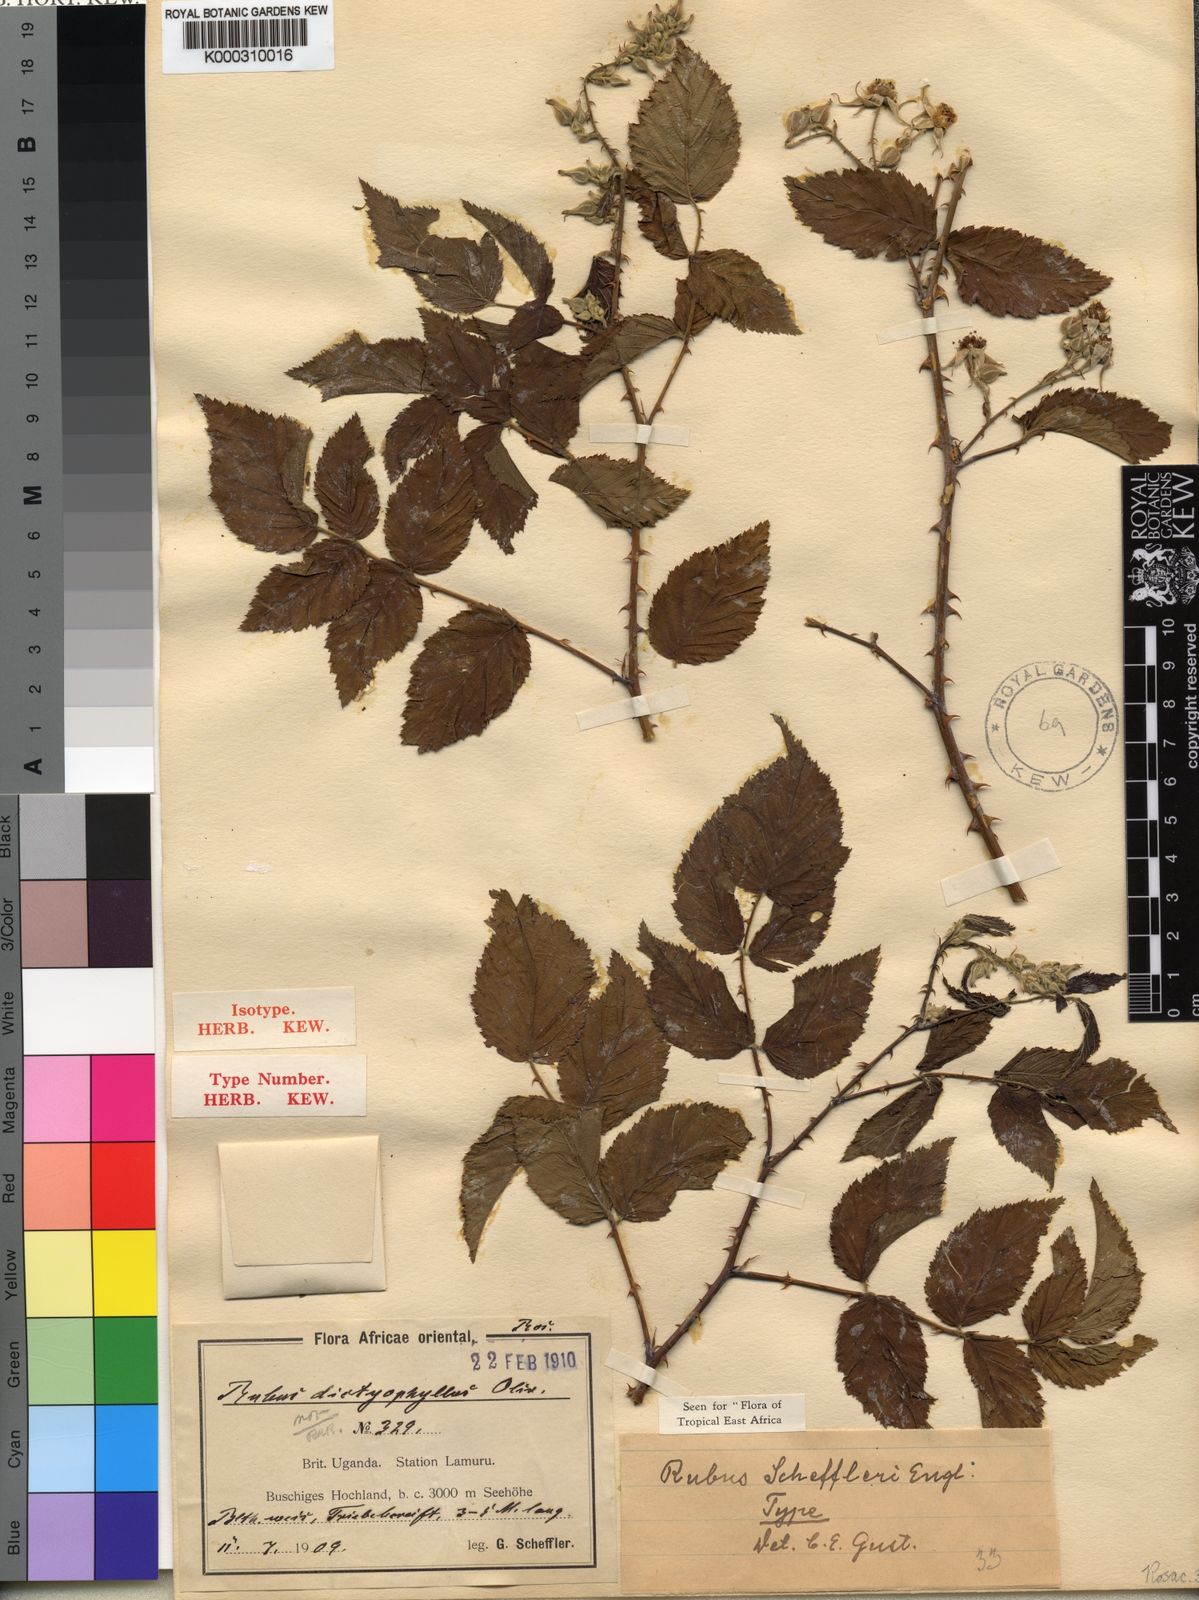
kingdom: Plantae
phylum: Tracheophyta
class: Magnoliopsida
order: Rosales
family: Rosaceae
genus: Rubus
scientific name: Rubus scheffleri
